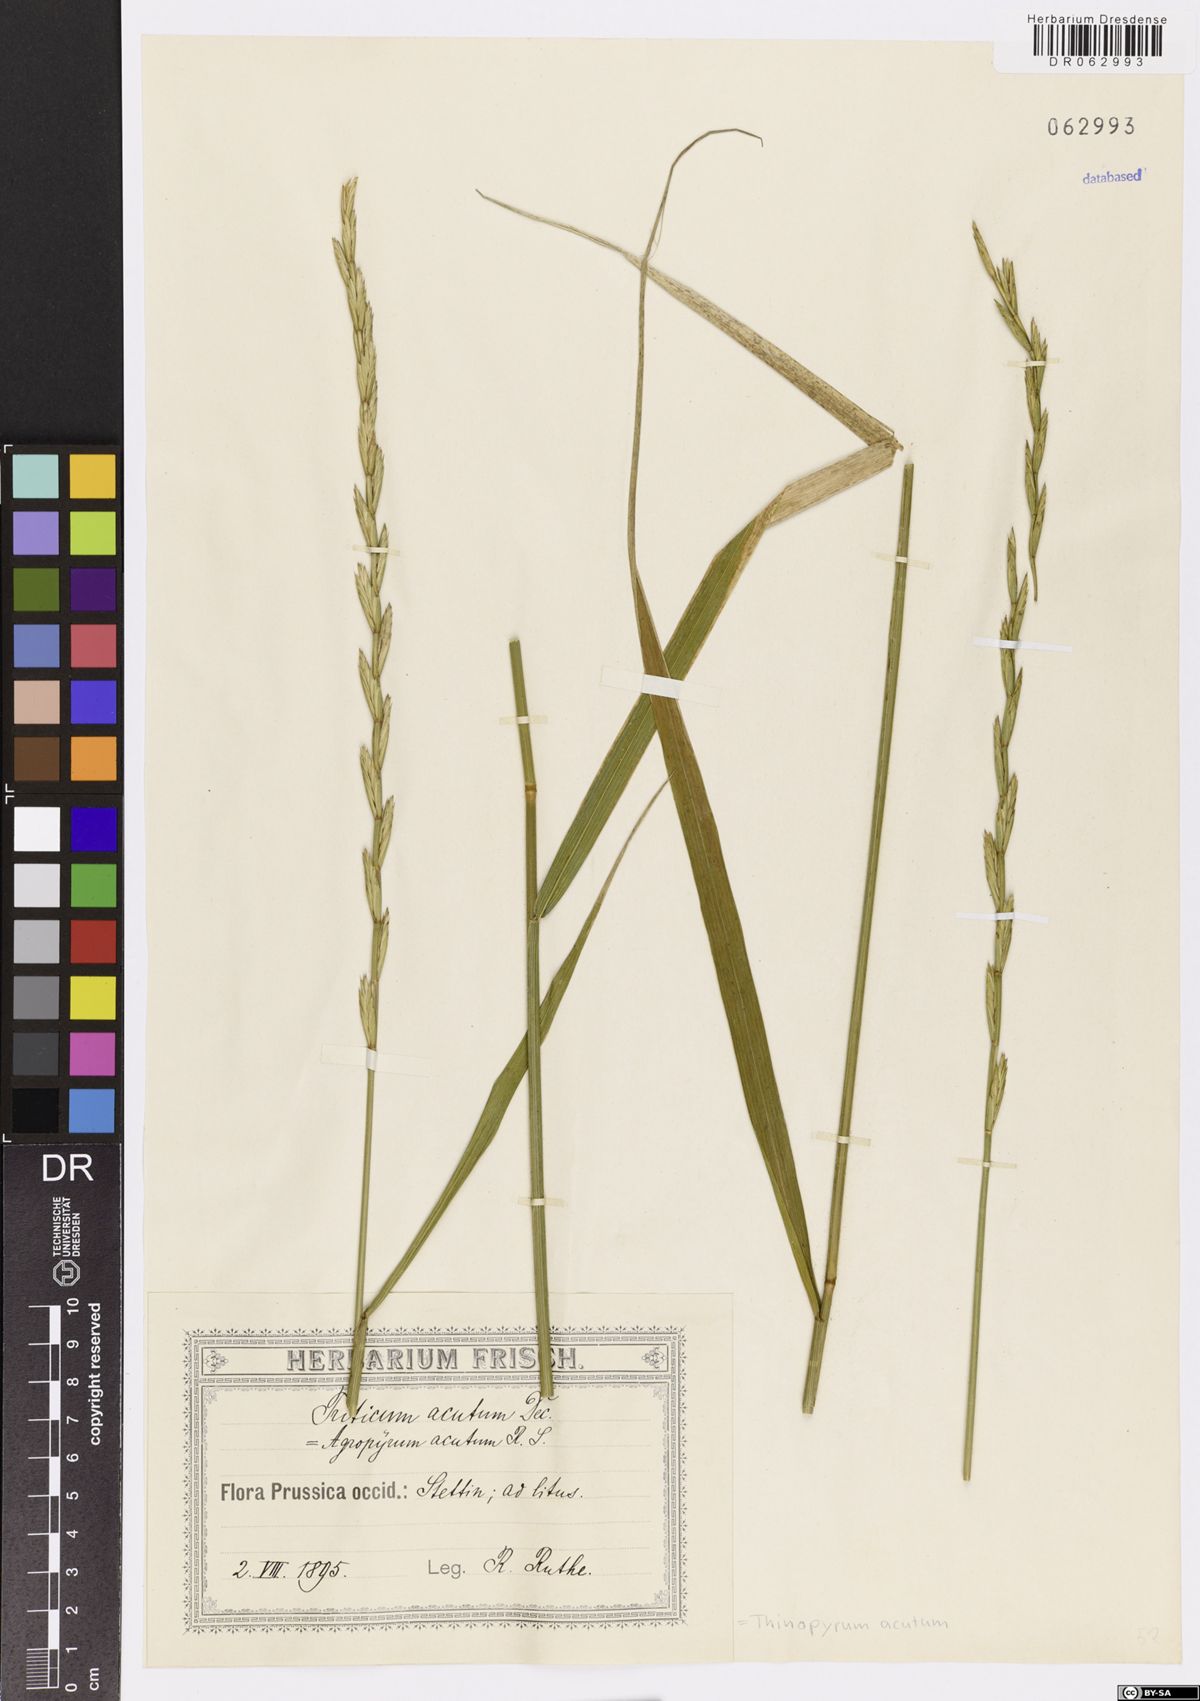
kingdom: Plantae
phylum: Tracheophyta
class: Liliopsida
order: Poales
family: Poaceae
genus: Thinopyrum
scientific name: Thinopyrum acutum
